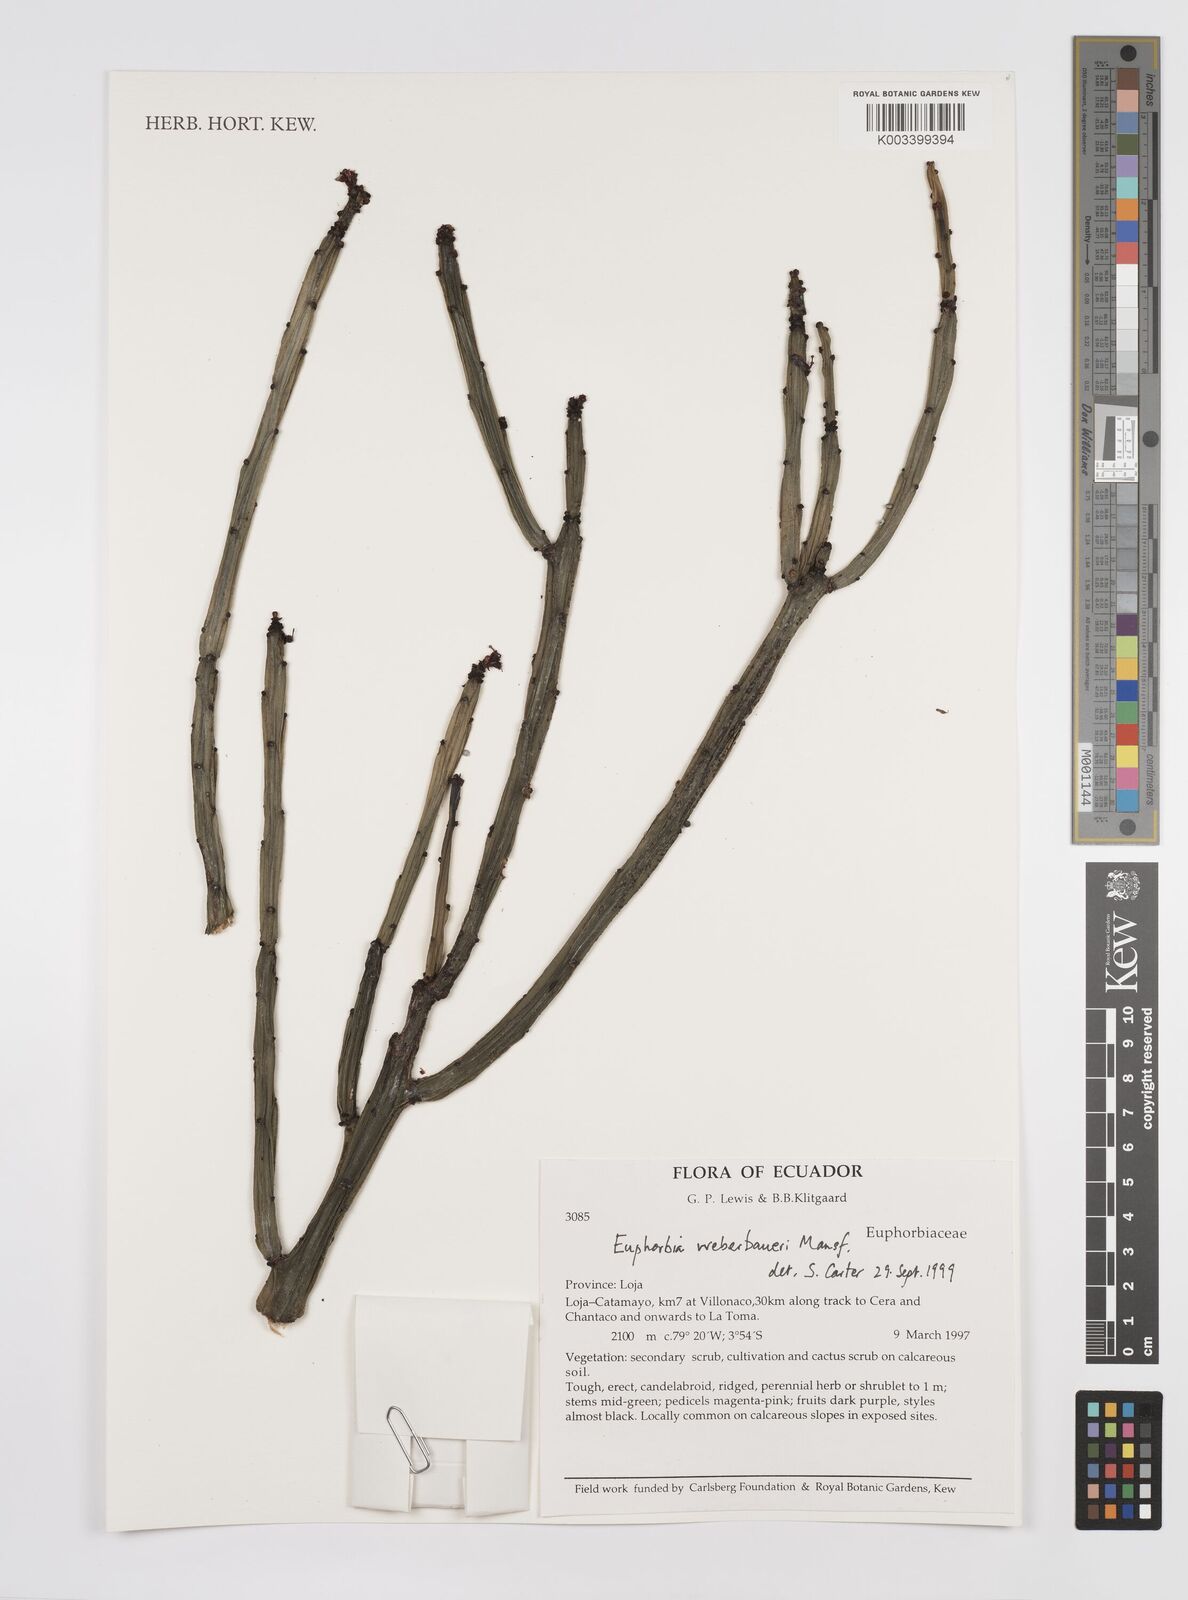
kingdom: Plantae
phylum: Tracheophyta
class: Magnoliopsida
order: Malpighiales
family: Euphorbiaceae
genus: Euphorbia
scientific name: Euphorbia weberbaueri
